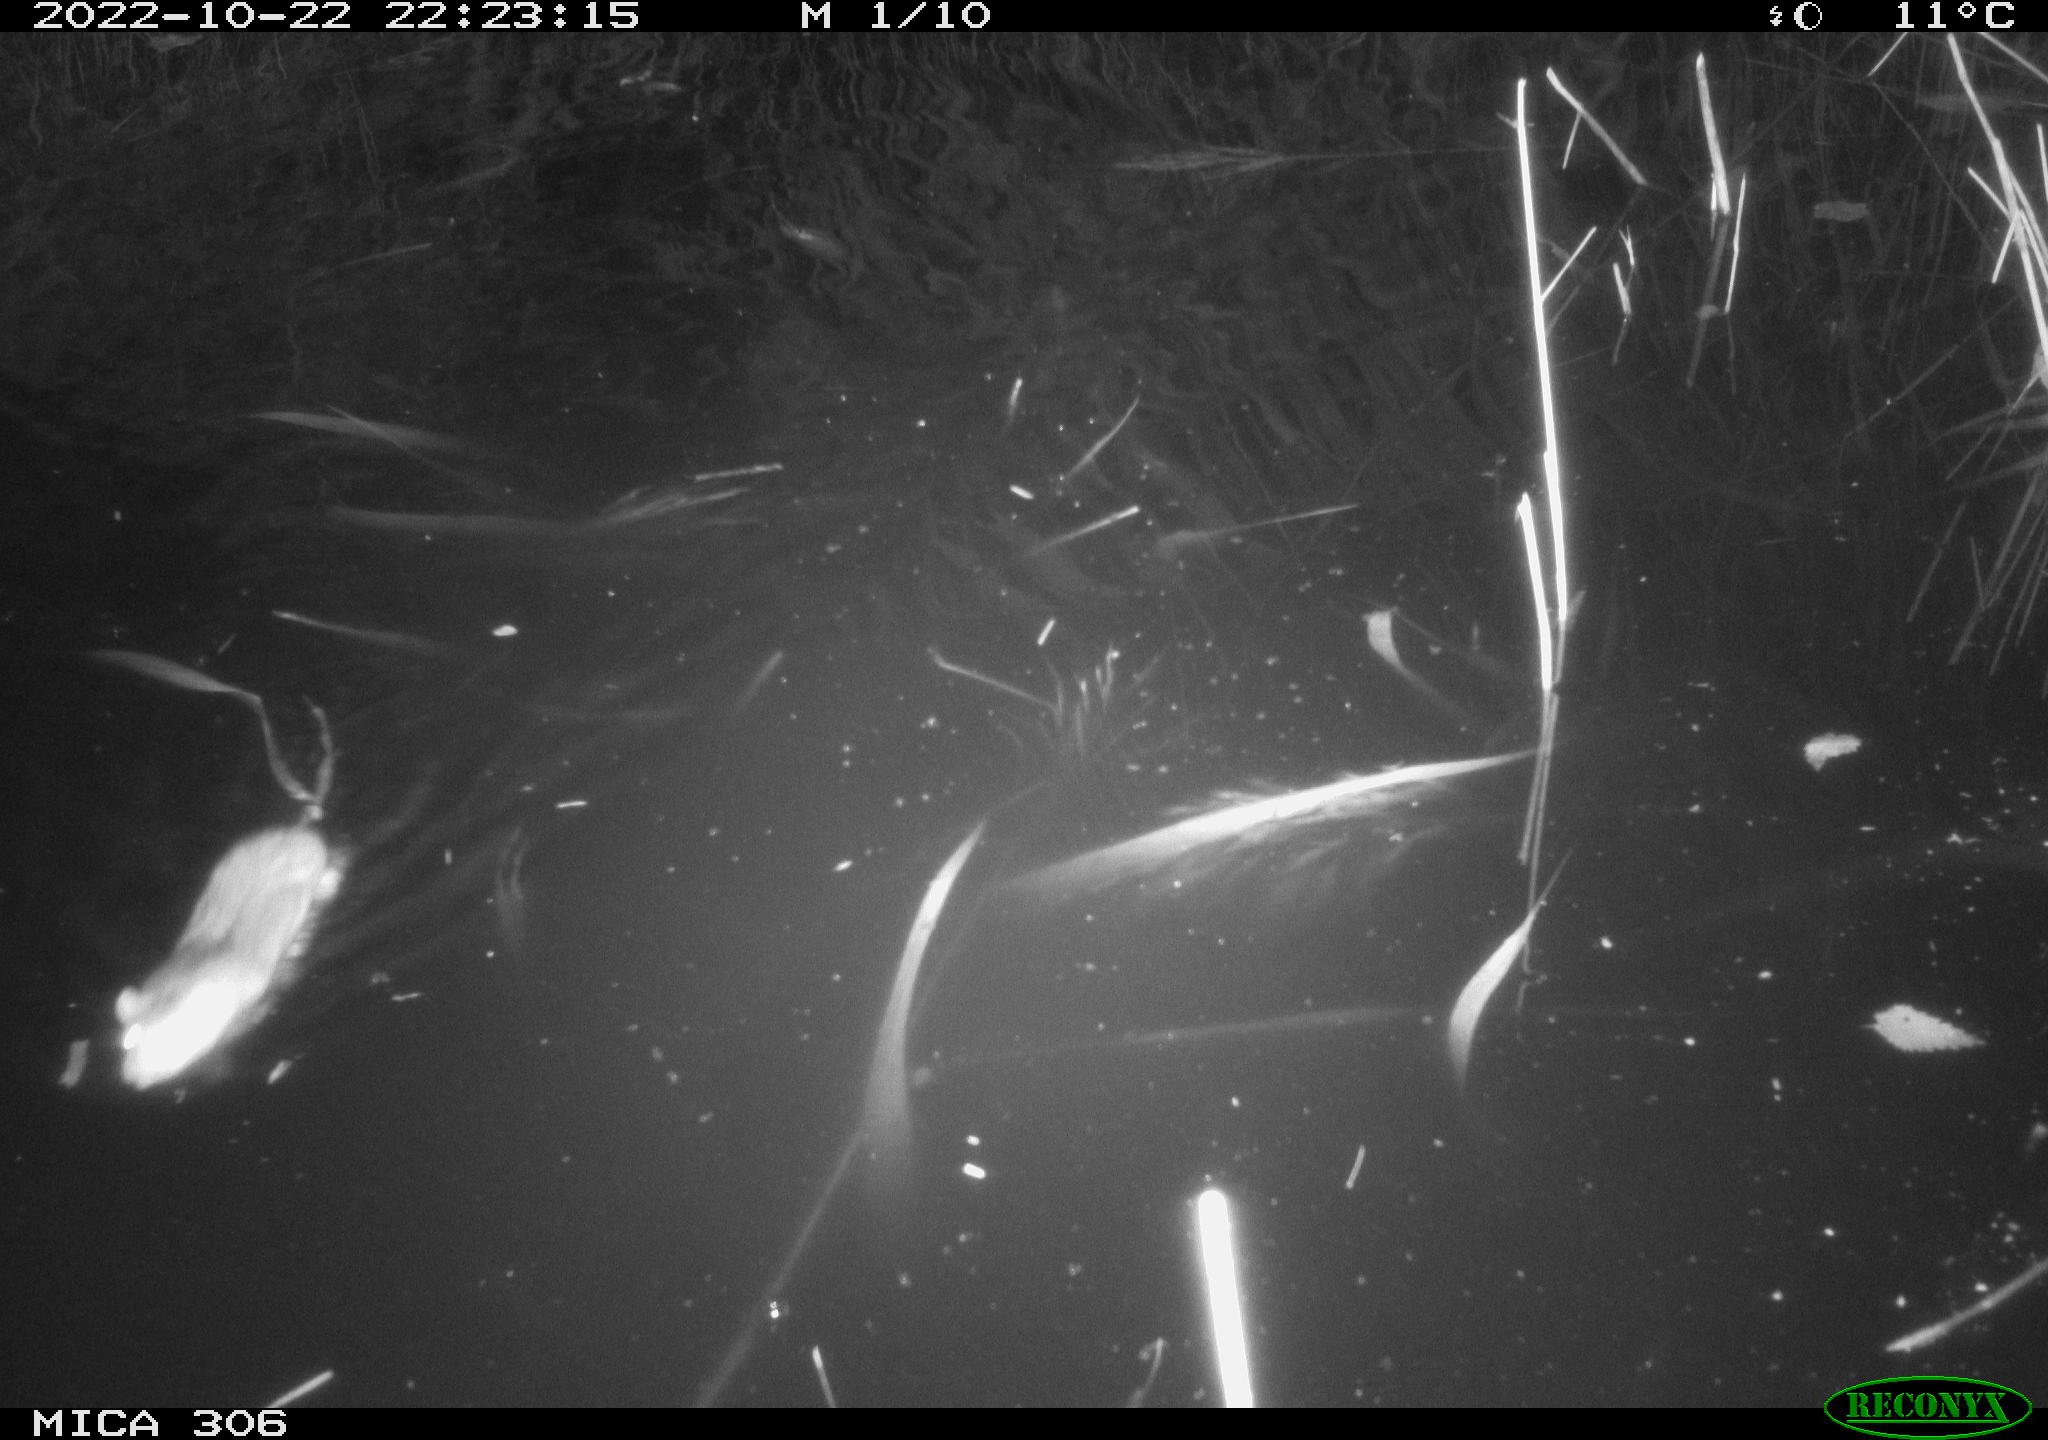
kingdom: Animalia
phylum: Chordata
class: Mammalia
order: Rodentia
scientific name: Rodentia
